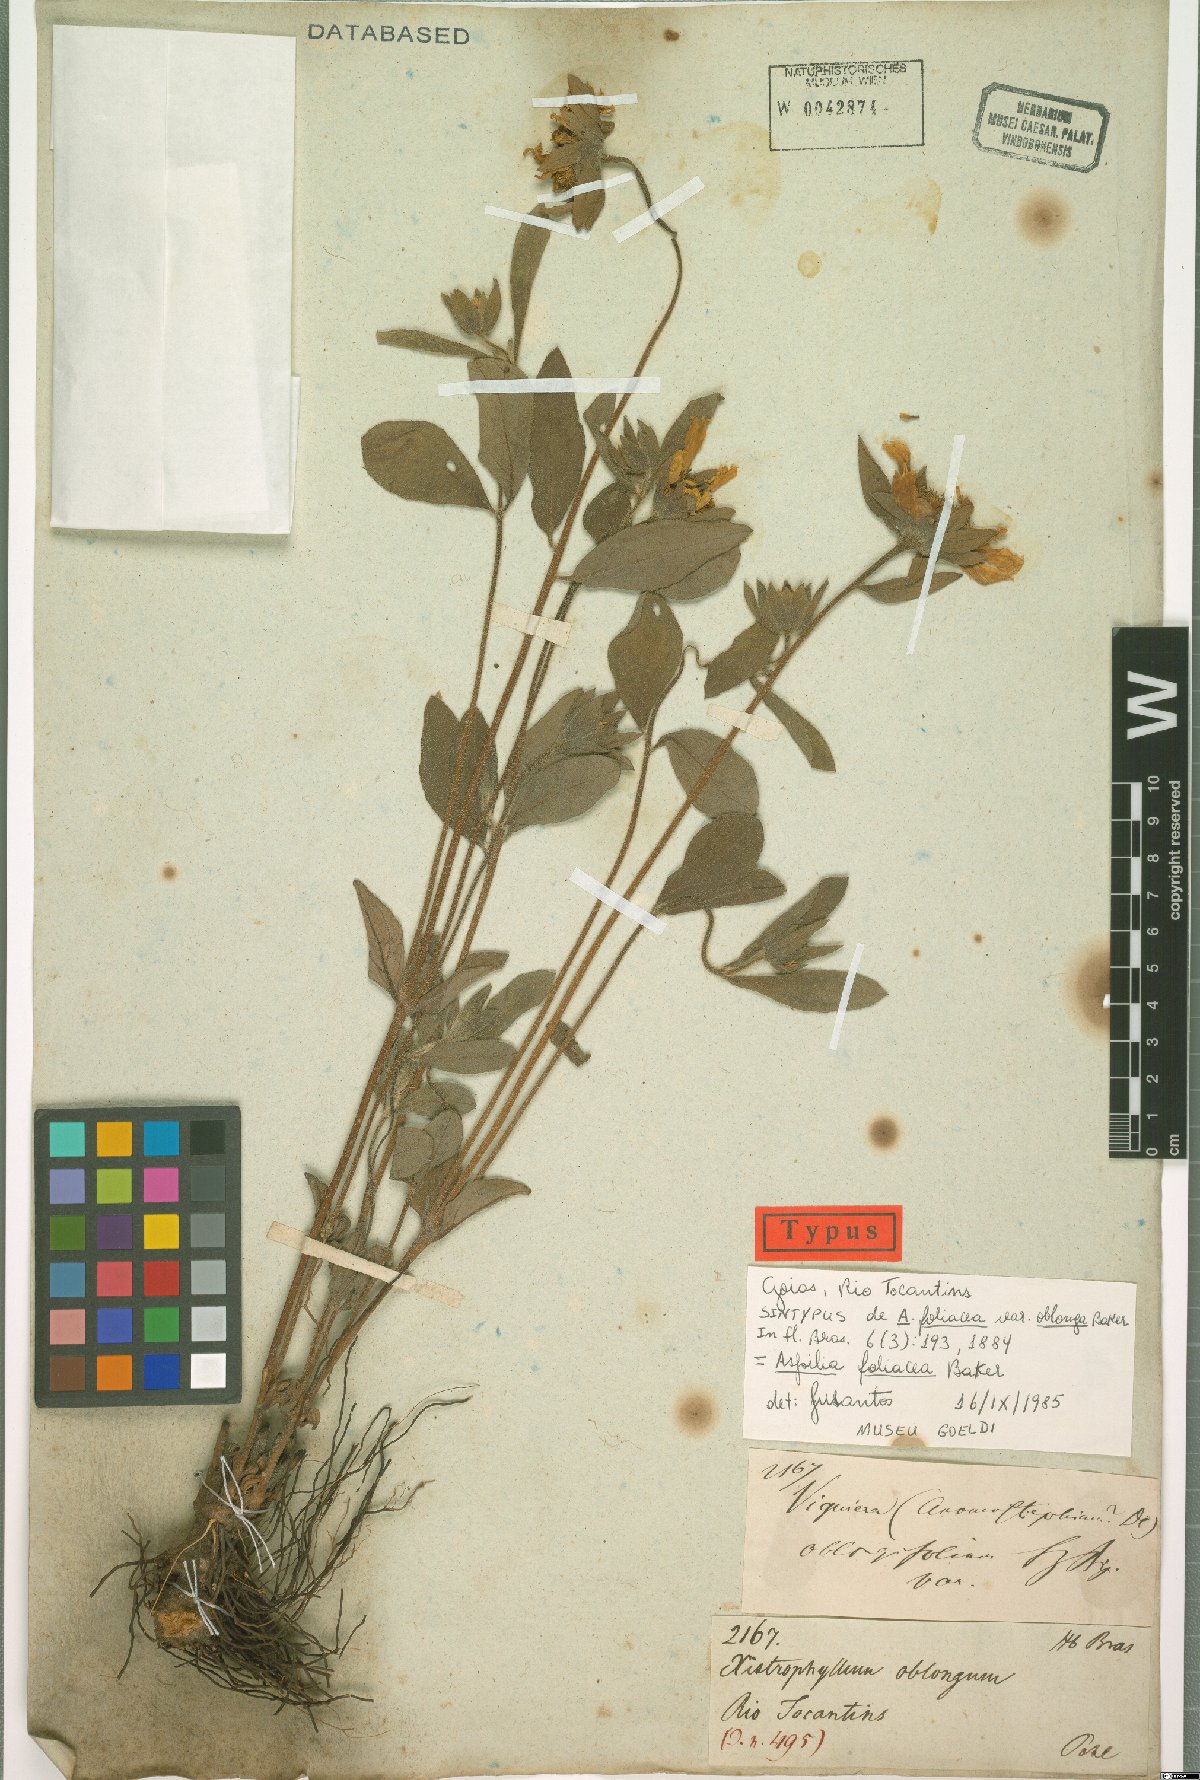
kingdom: Plantae
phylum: Tracheophyta
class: Magnoliopsida
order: Asterales
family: Asteraceae
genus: Wedelia
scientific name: Wedelia foliacea
